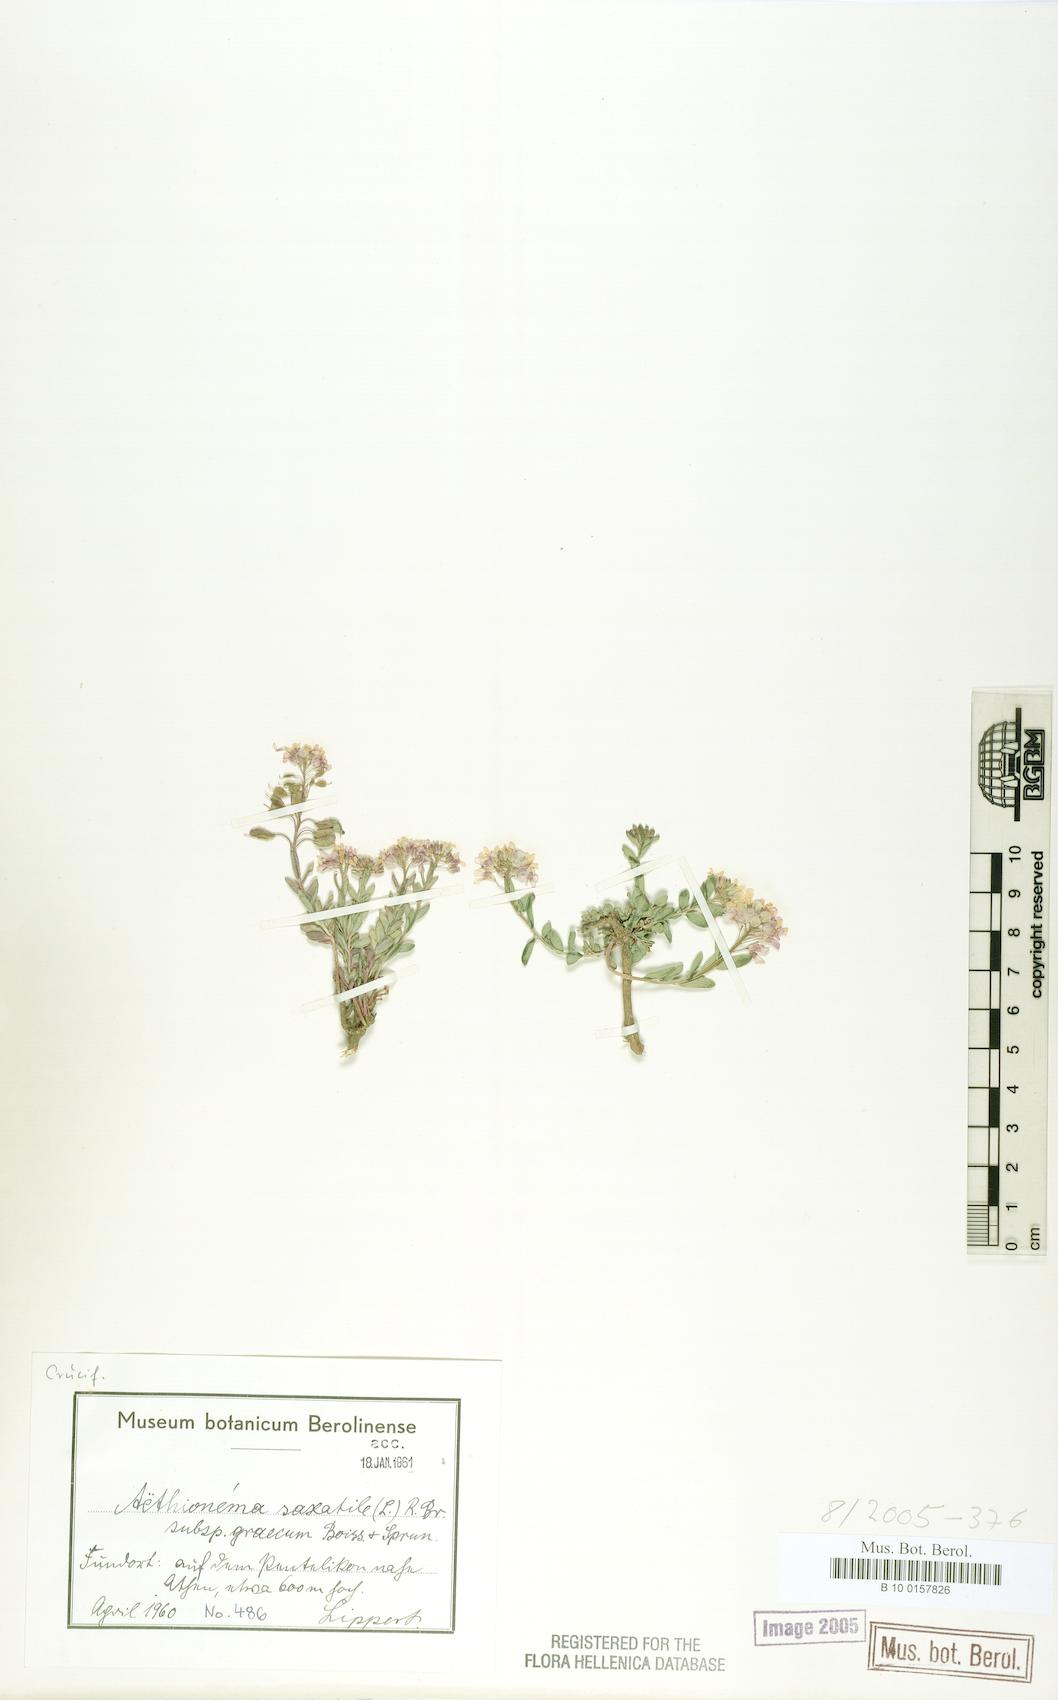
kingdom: Plantae
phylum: Tracheophyta
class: Magnoliopsida
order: Brassicales
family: Brassicaceae
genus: Aethionema
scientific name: Aethionema saxatile
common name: Burnt candytuft
